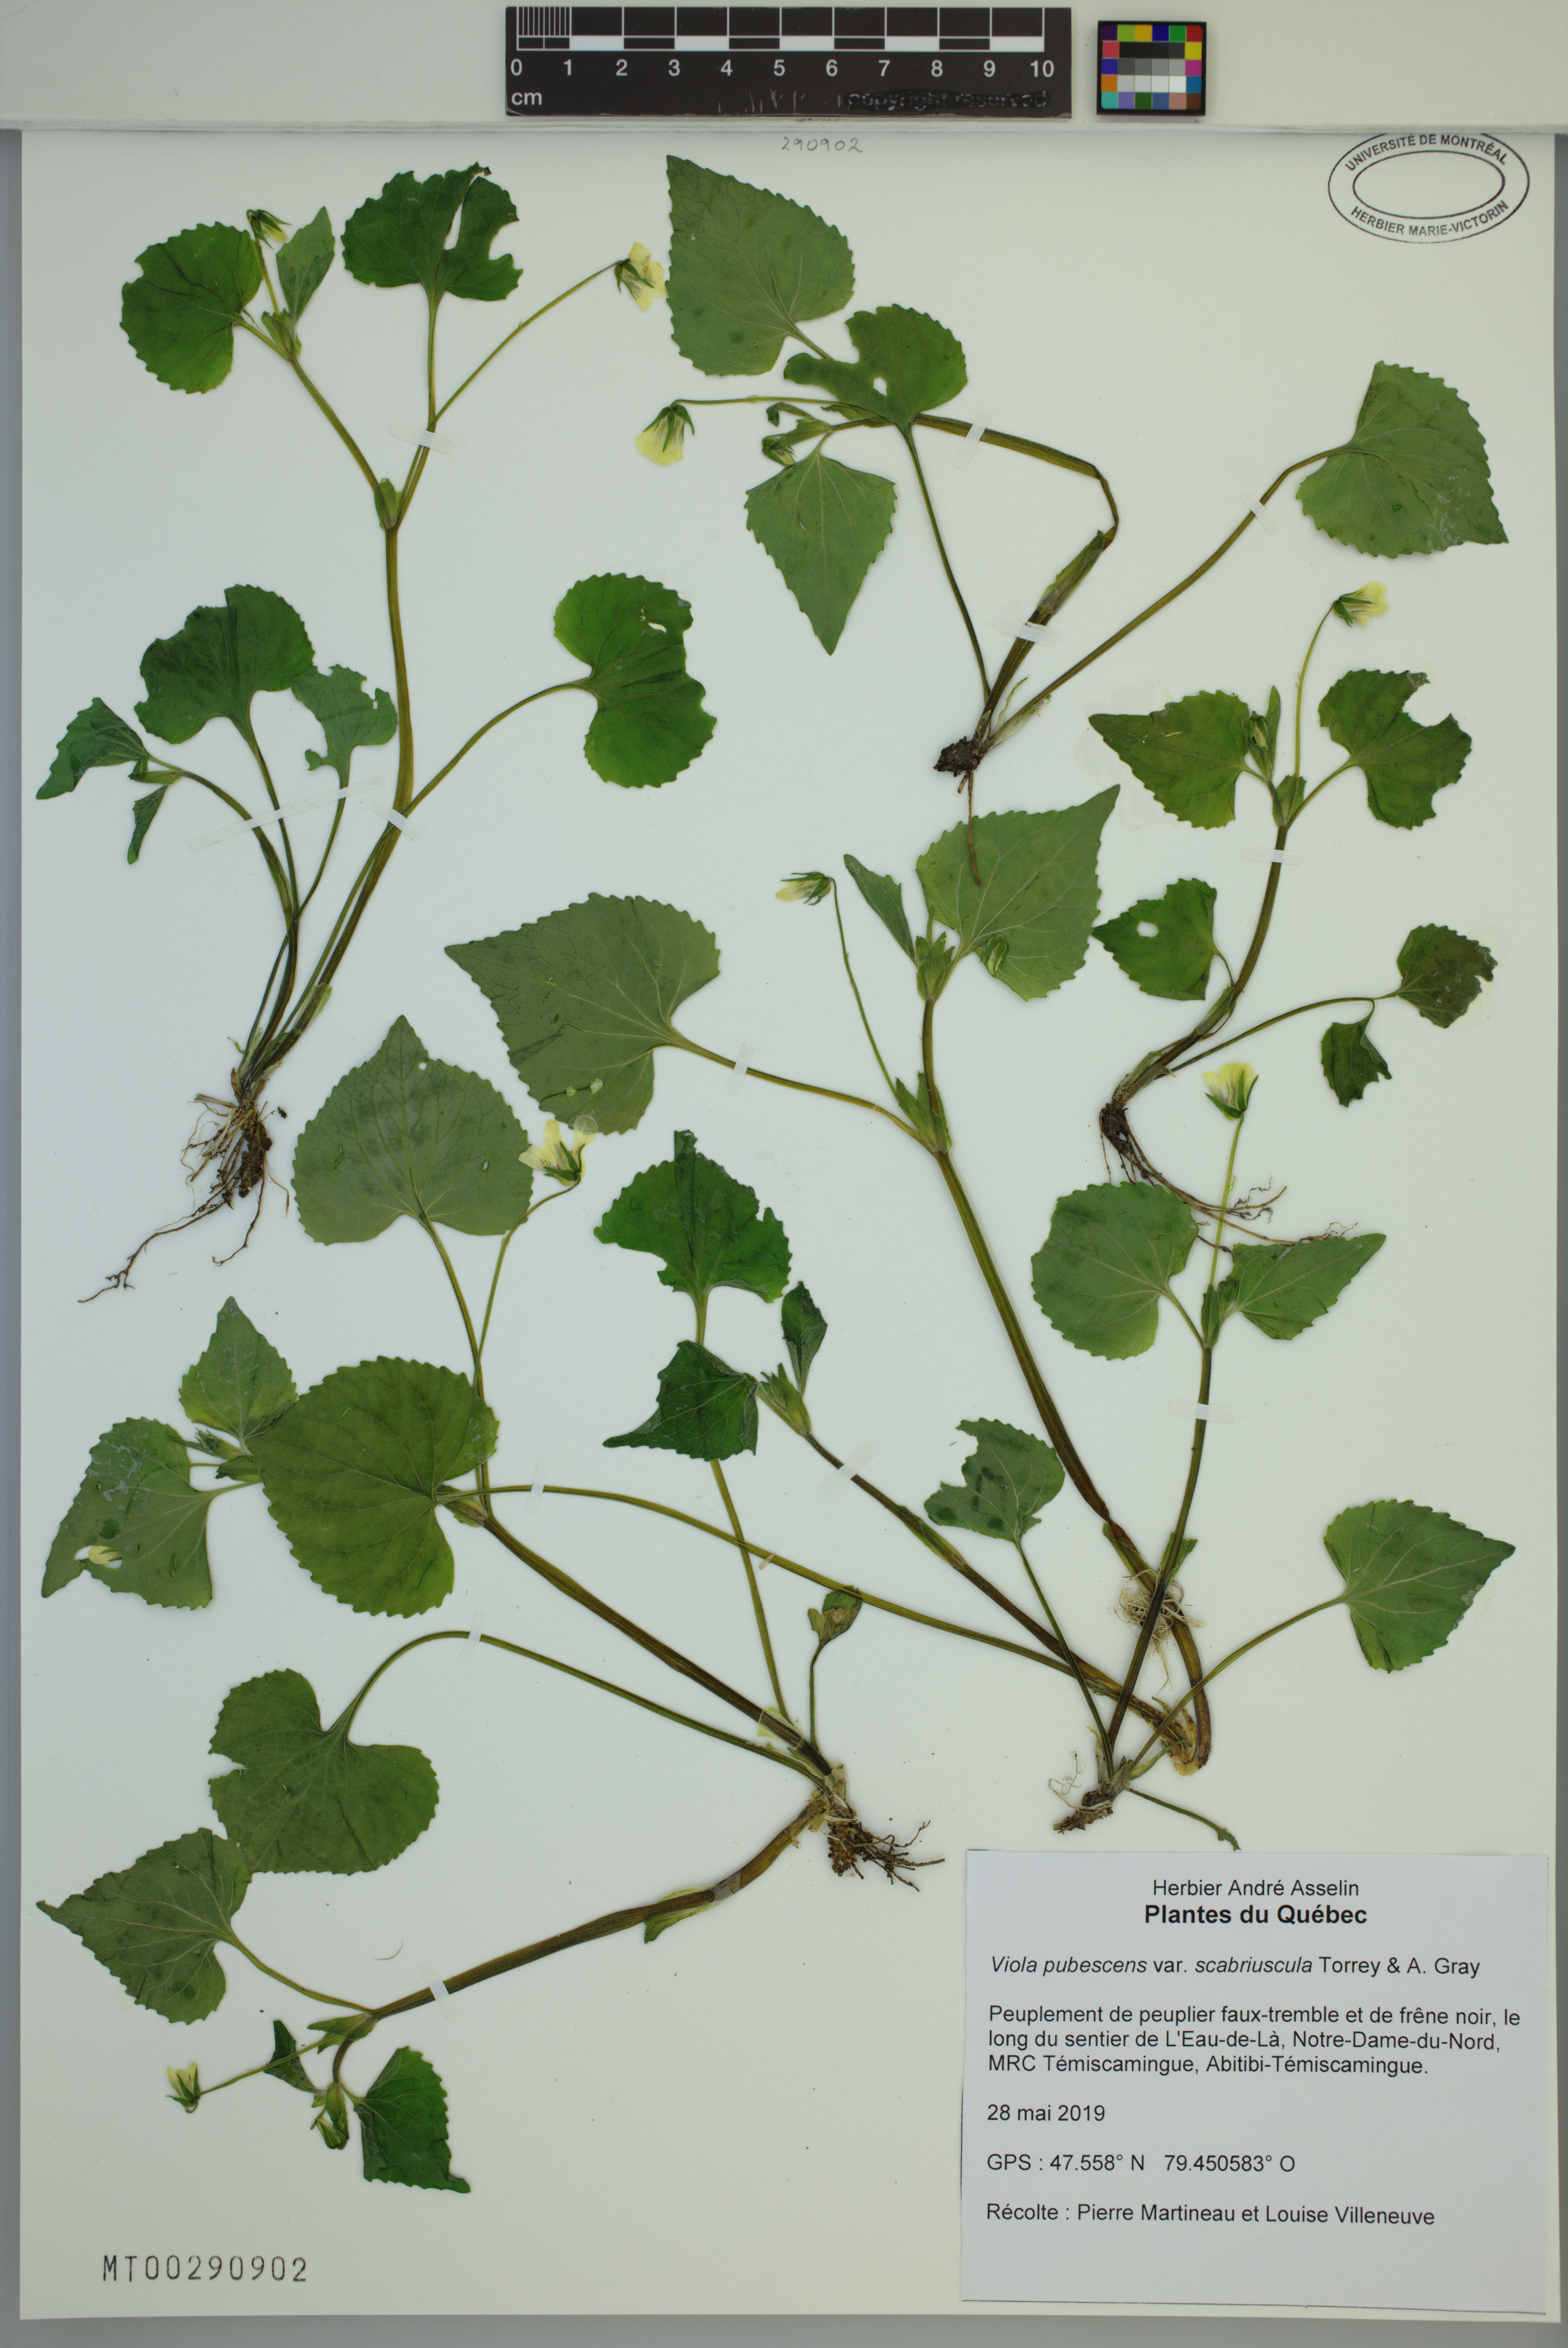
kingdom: Plantae
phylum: Tracheophyta
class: Magnoliopsida
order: Malpighiales
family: Violaceae
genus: Viola
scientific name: Viola eriocarpa
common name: Smooth yellow violet
